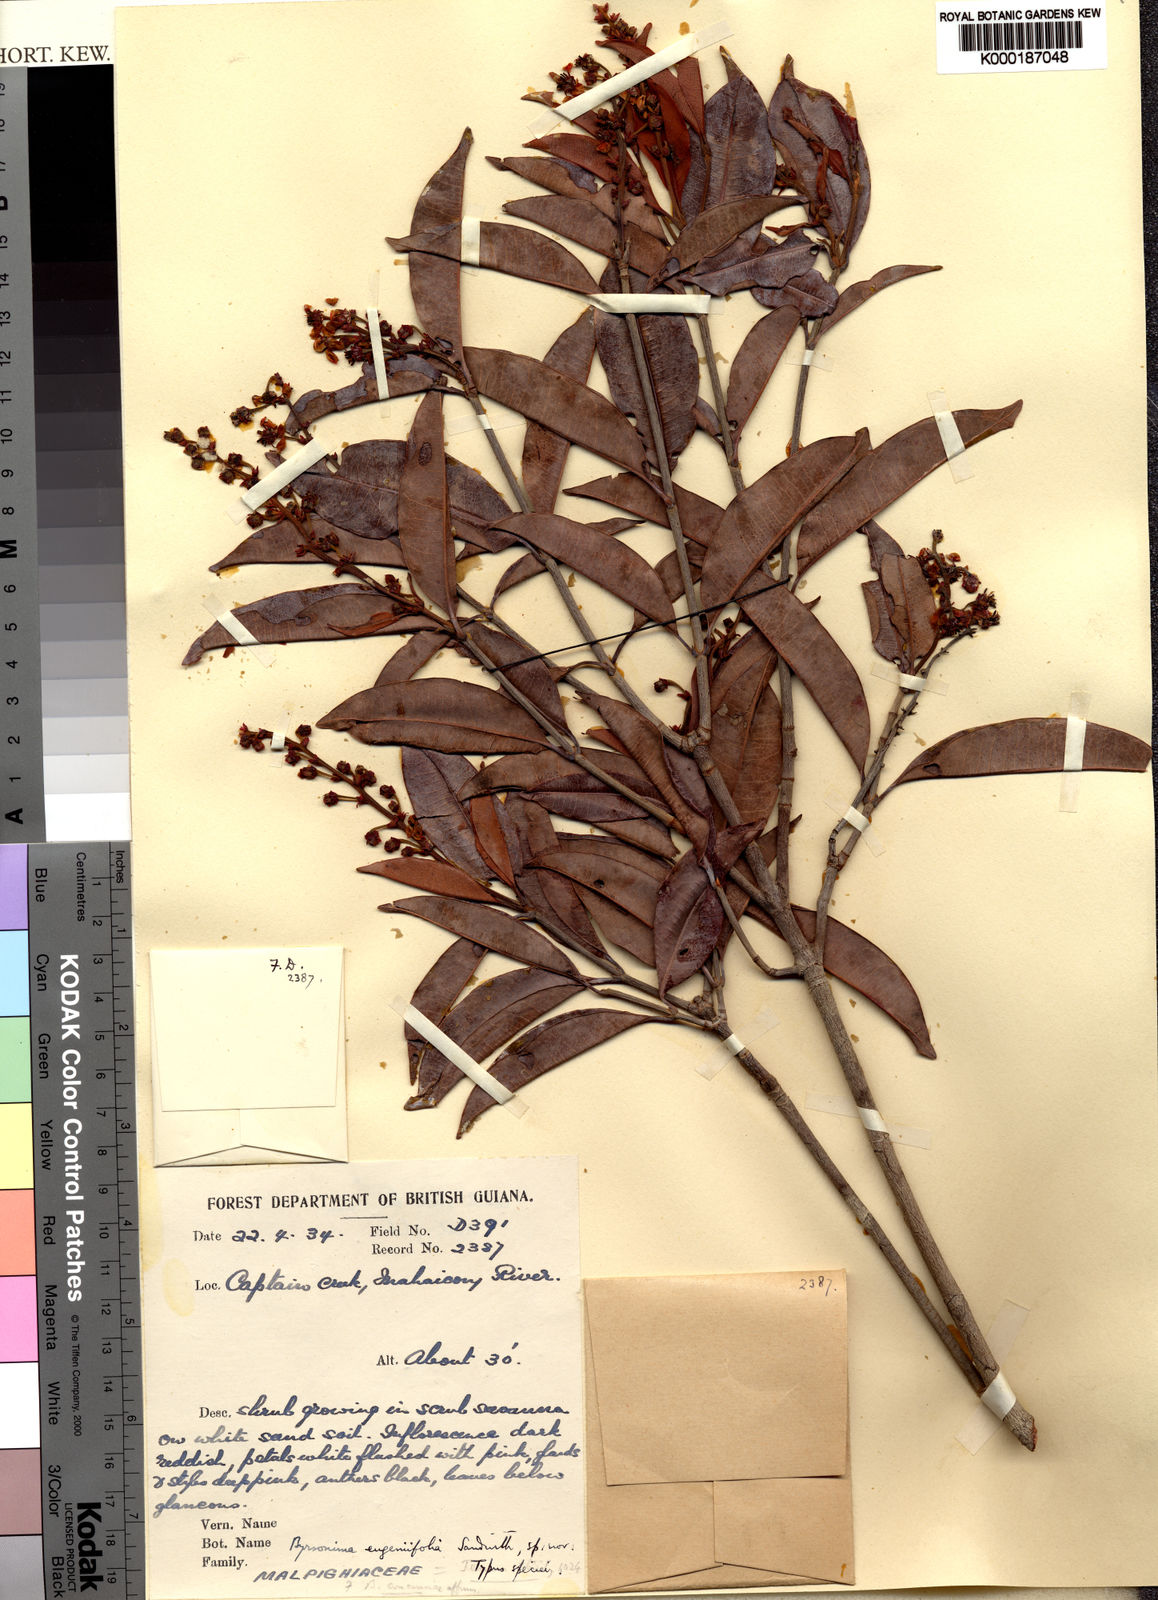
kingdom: Plantae
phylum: Tracheophyta
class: Magnoliopsida
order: Malpighiales
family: Malpighiaceae
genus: Byrsonima
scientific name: Byrsonima eugeniifolia
